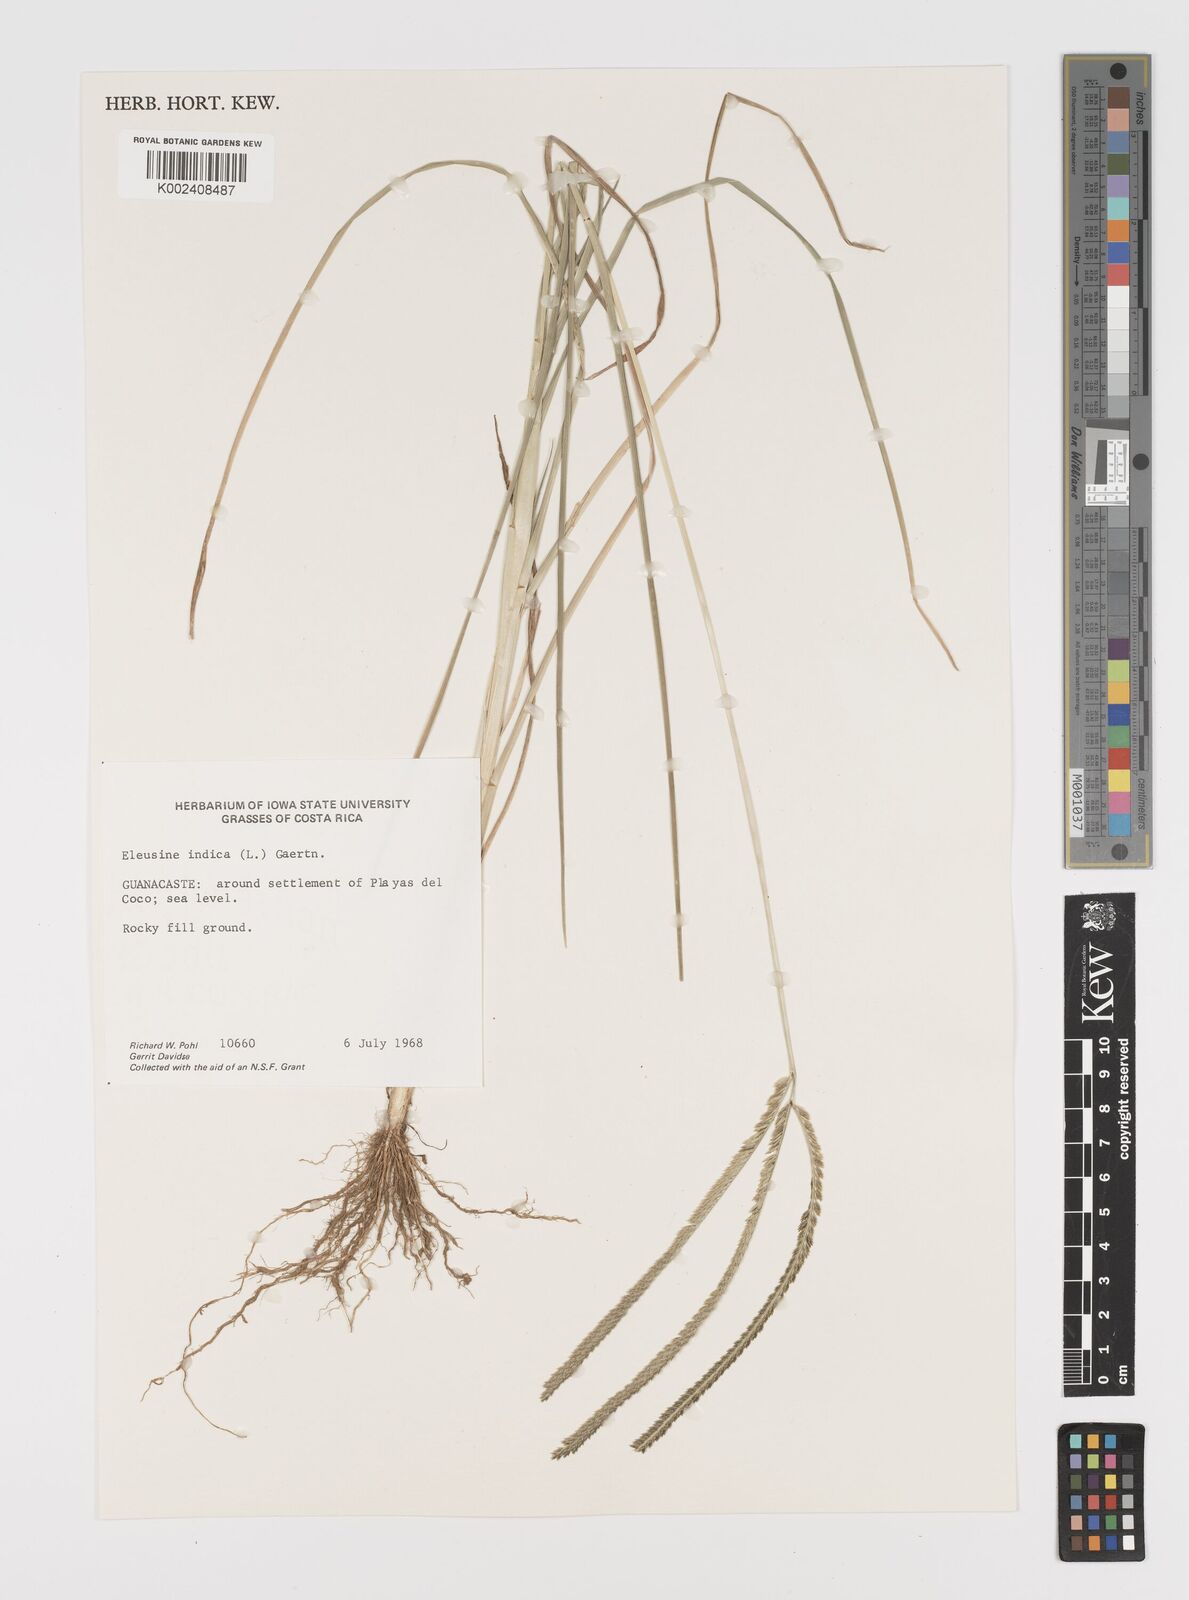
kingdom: Plantae
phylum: Tracheophyta
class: Liliopsida
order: Poales
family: Poaceae
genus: Eleusine
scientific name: Eleusine indica
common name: Yard-grass
